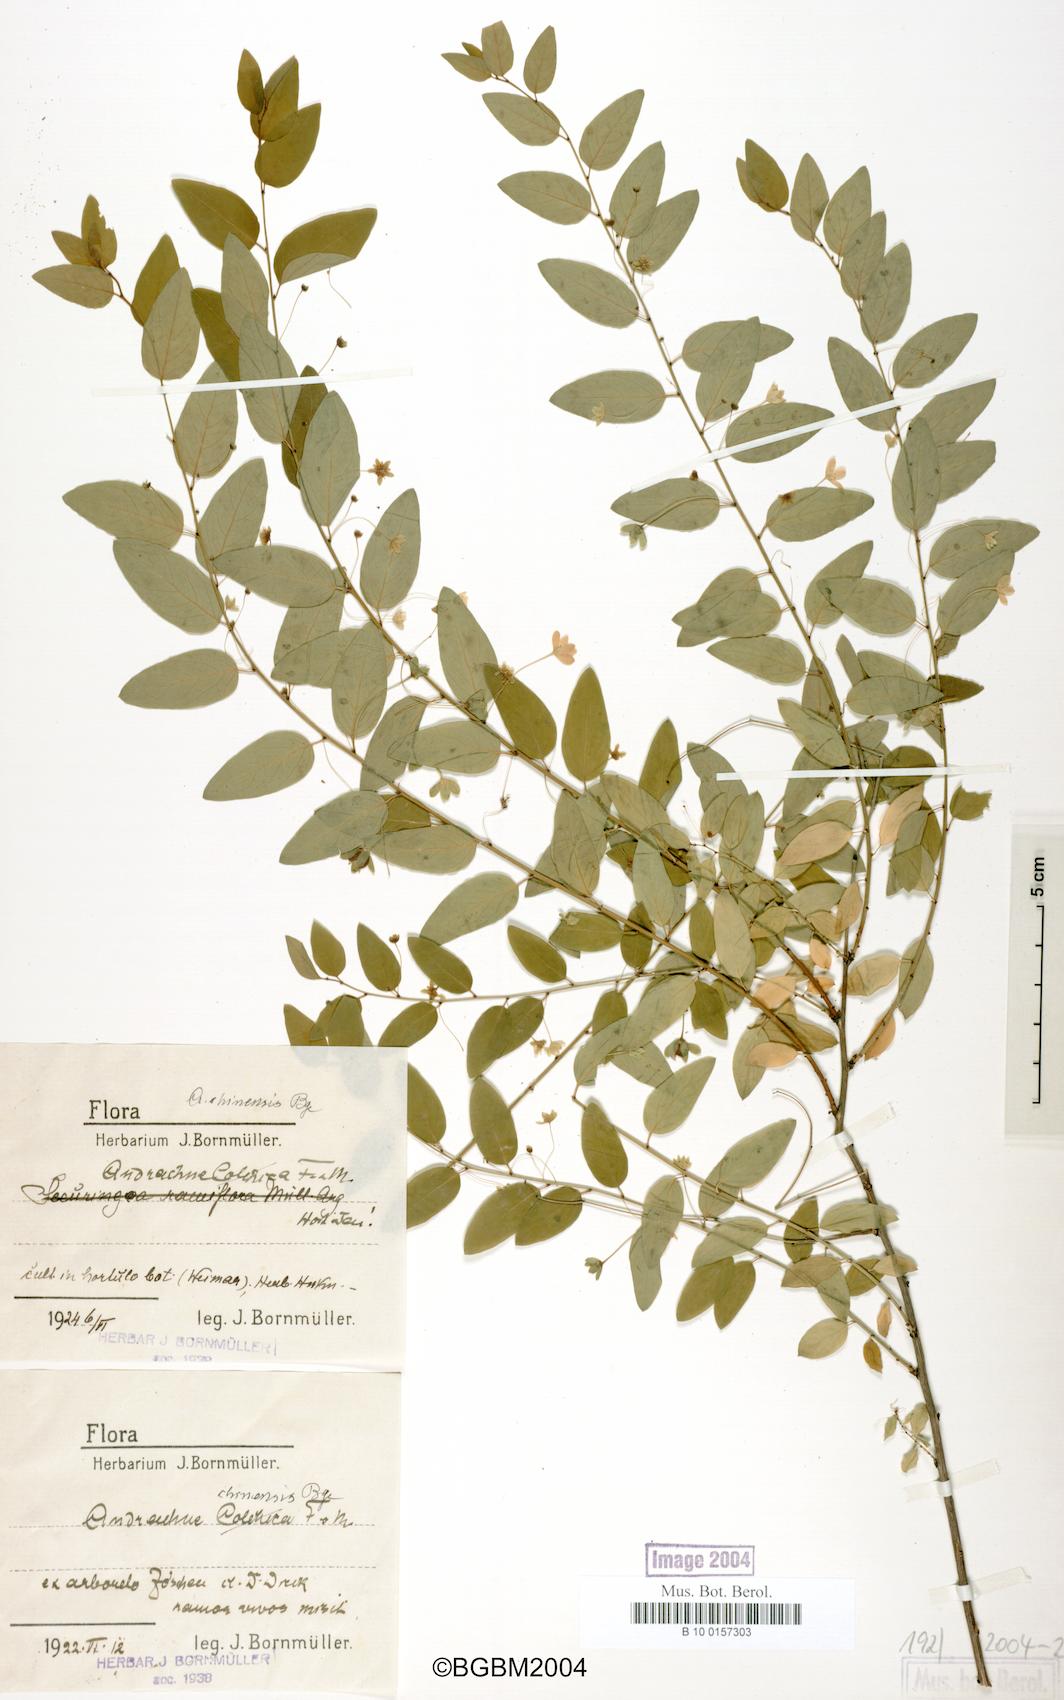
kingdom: Plantae
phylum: Tracheophyta
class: Magnoliopsida
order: Malpighiales
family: Phyllanthaceae
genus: Leptopus
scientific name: Leptopus chinensis
